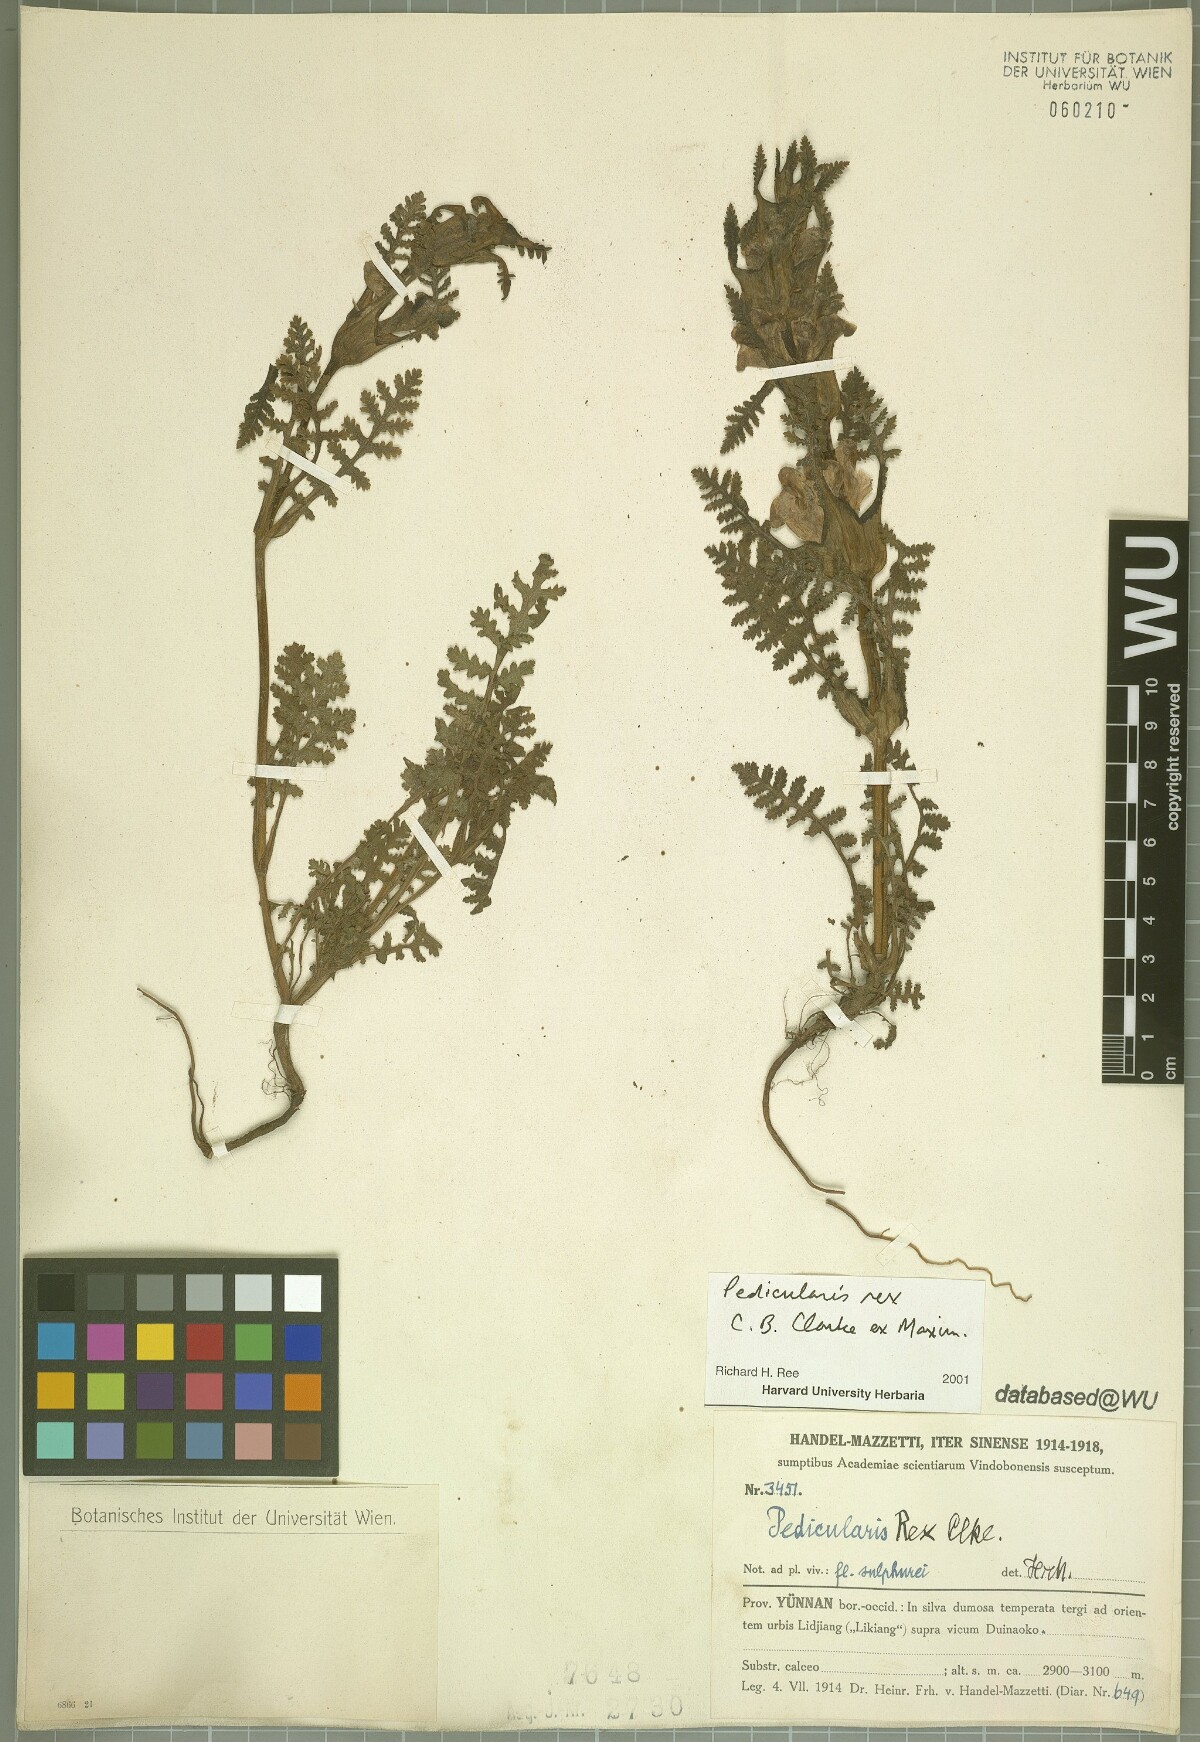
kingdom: Plantae
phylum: Tracheophyta
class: Magnoliopsida
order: Lamiales
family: Orobanchaceae
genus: Pedicularis
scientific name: Pedicularis rex
